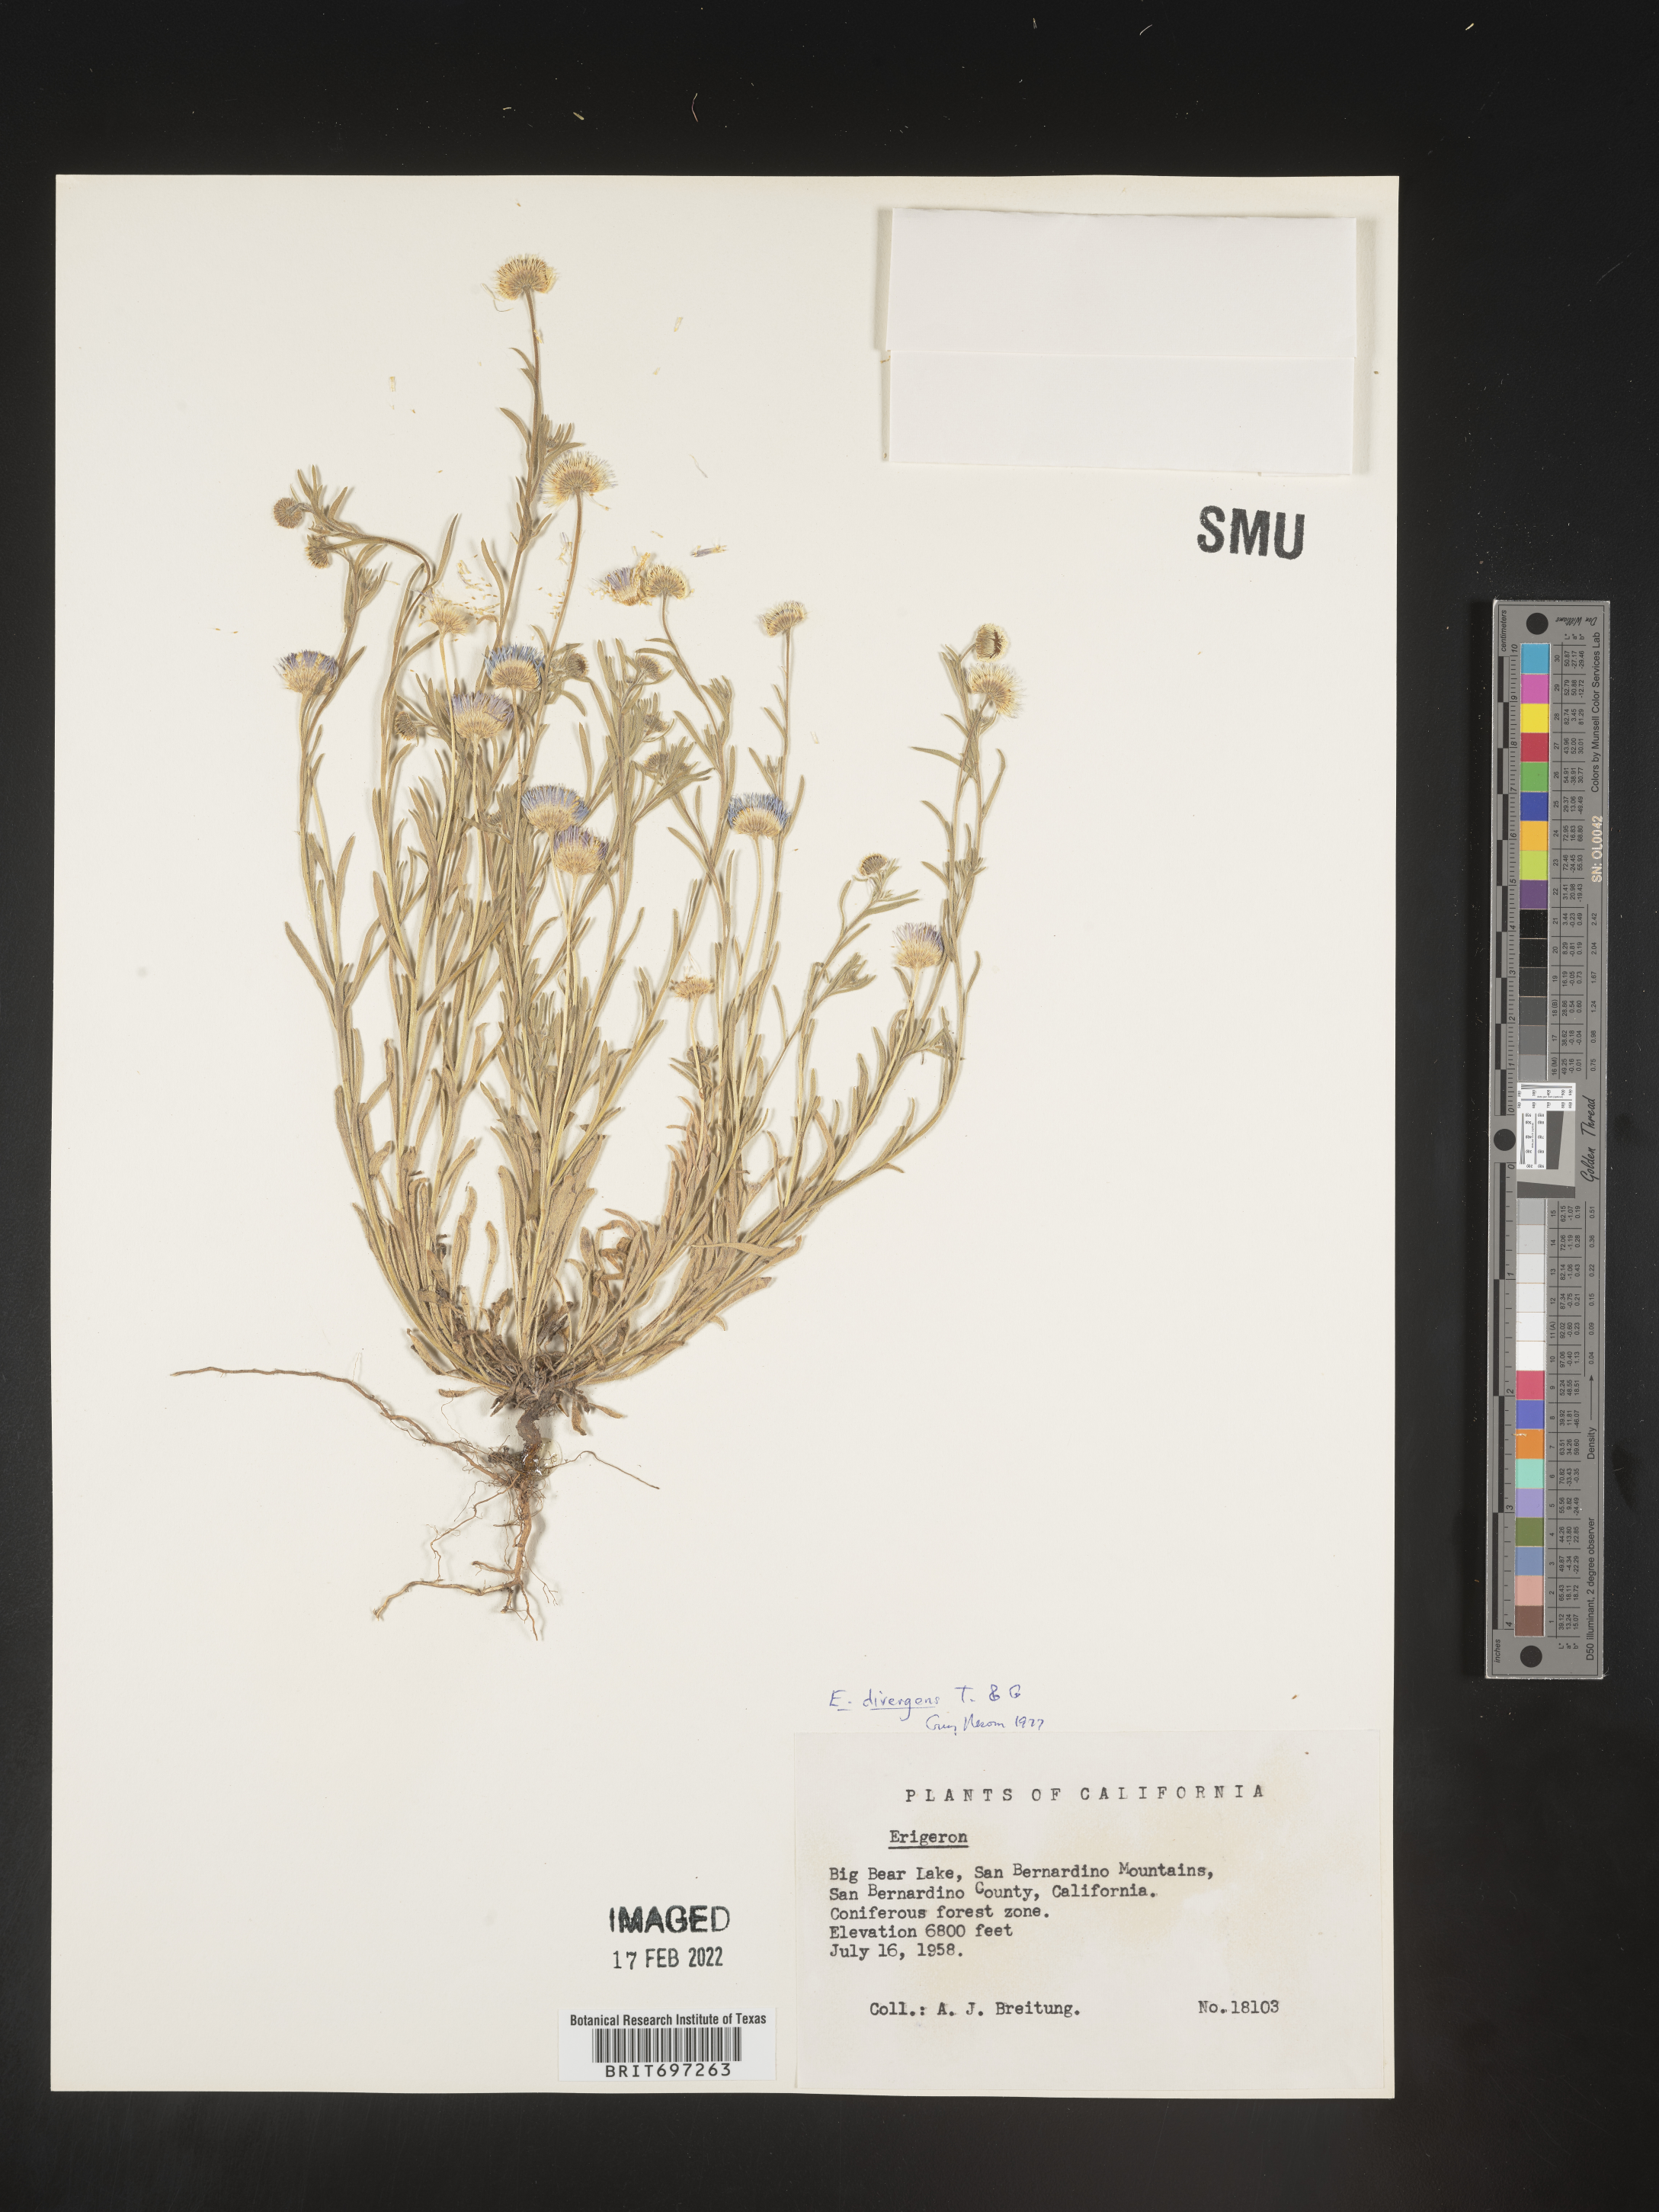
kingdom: Plantae
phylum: Tracheophyta
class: Magnoliopsida
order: Asterales
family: Asteraceae
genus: Erigeron
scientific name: Erigeron divergens
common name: Diffuse fleabane
